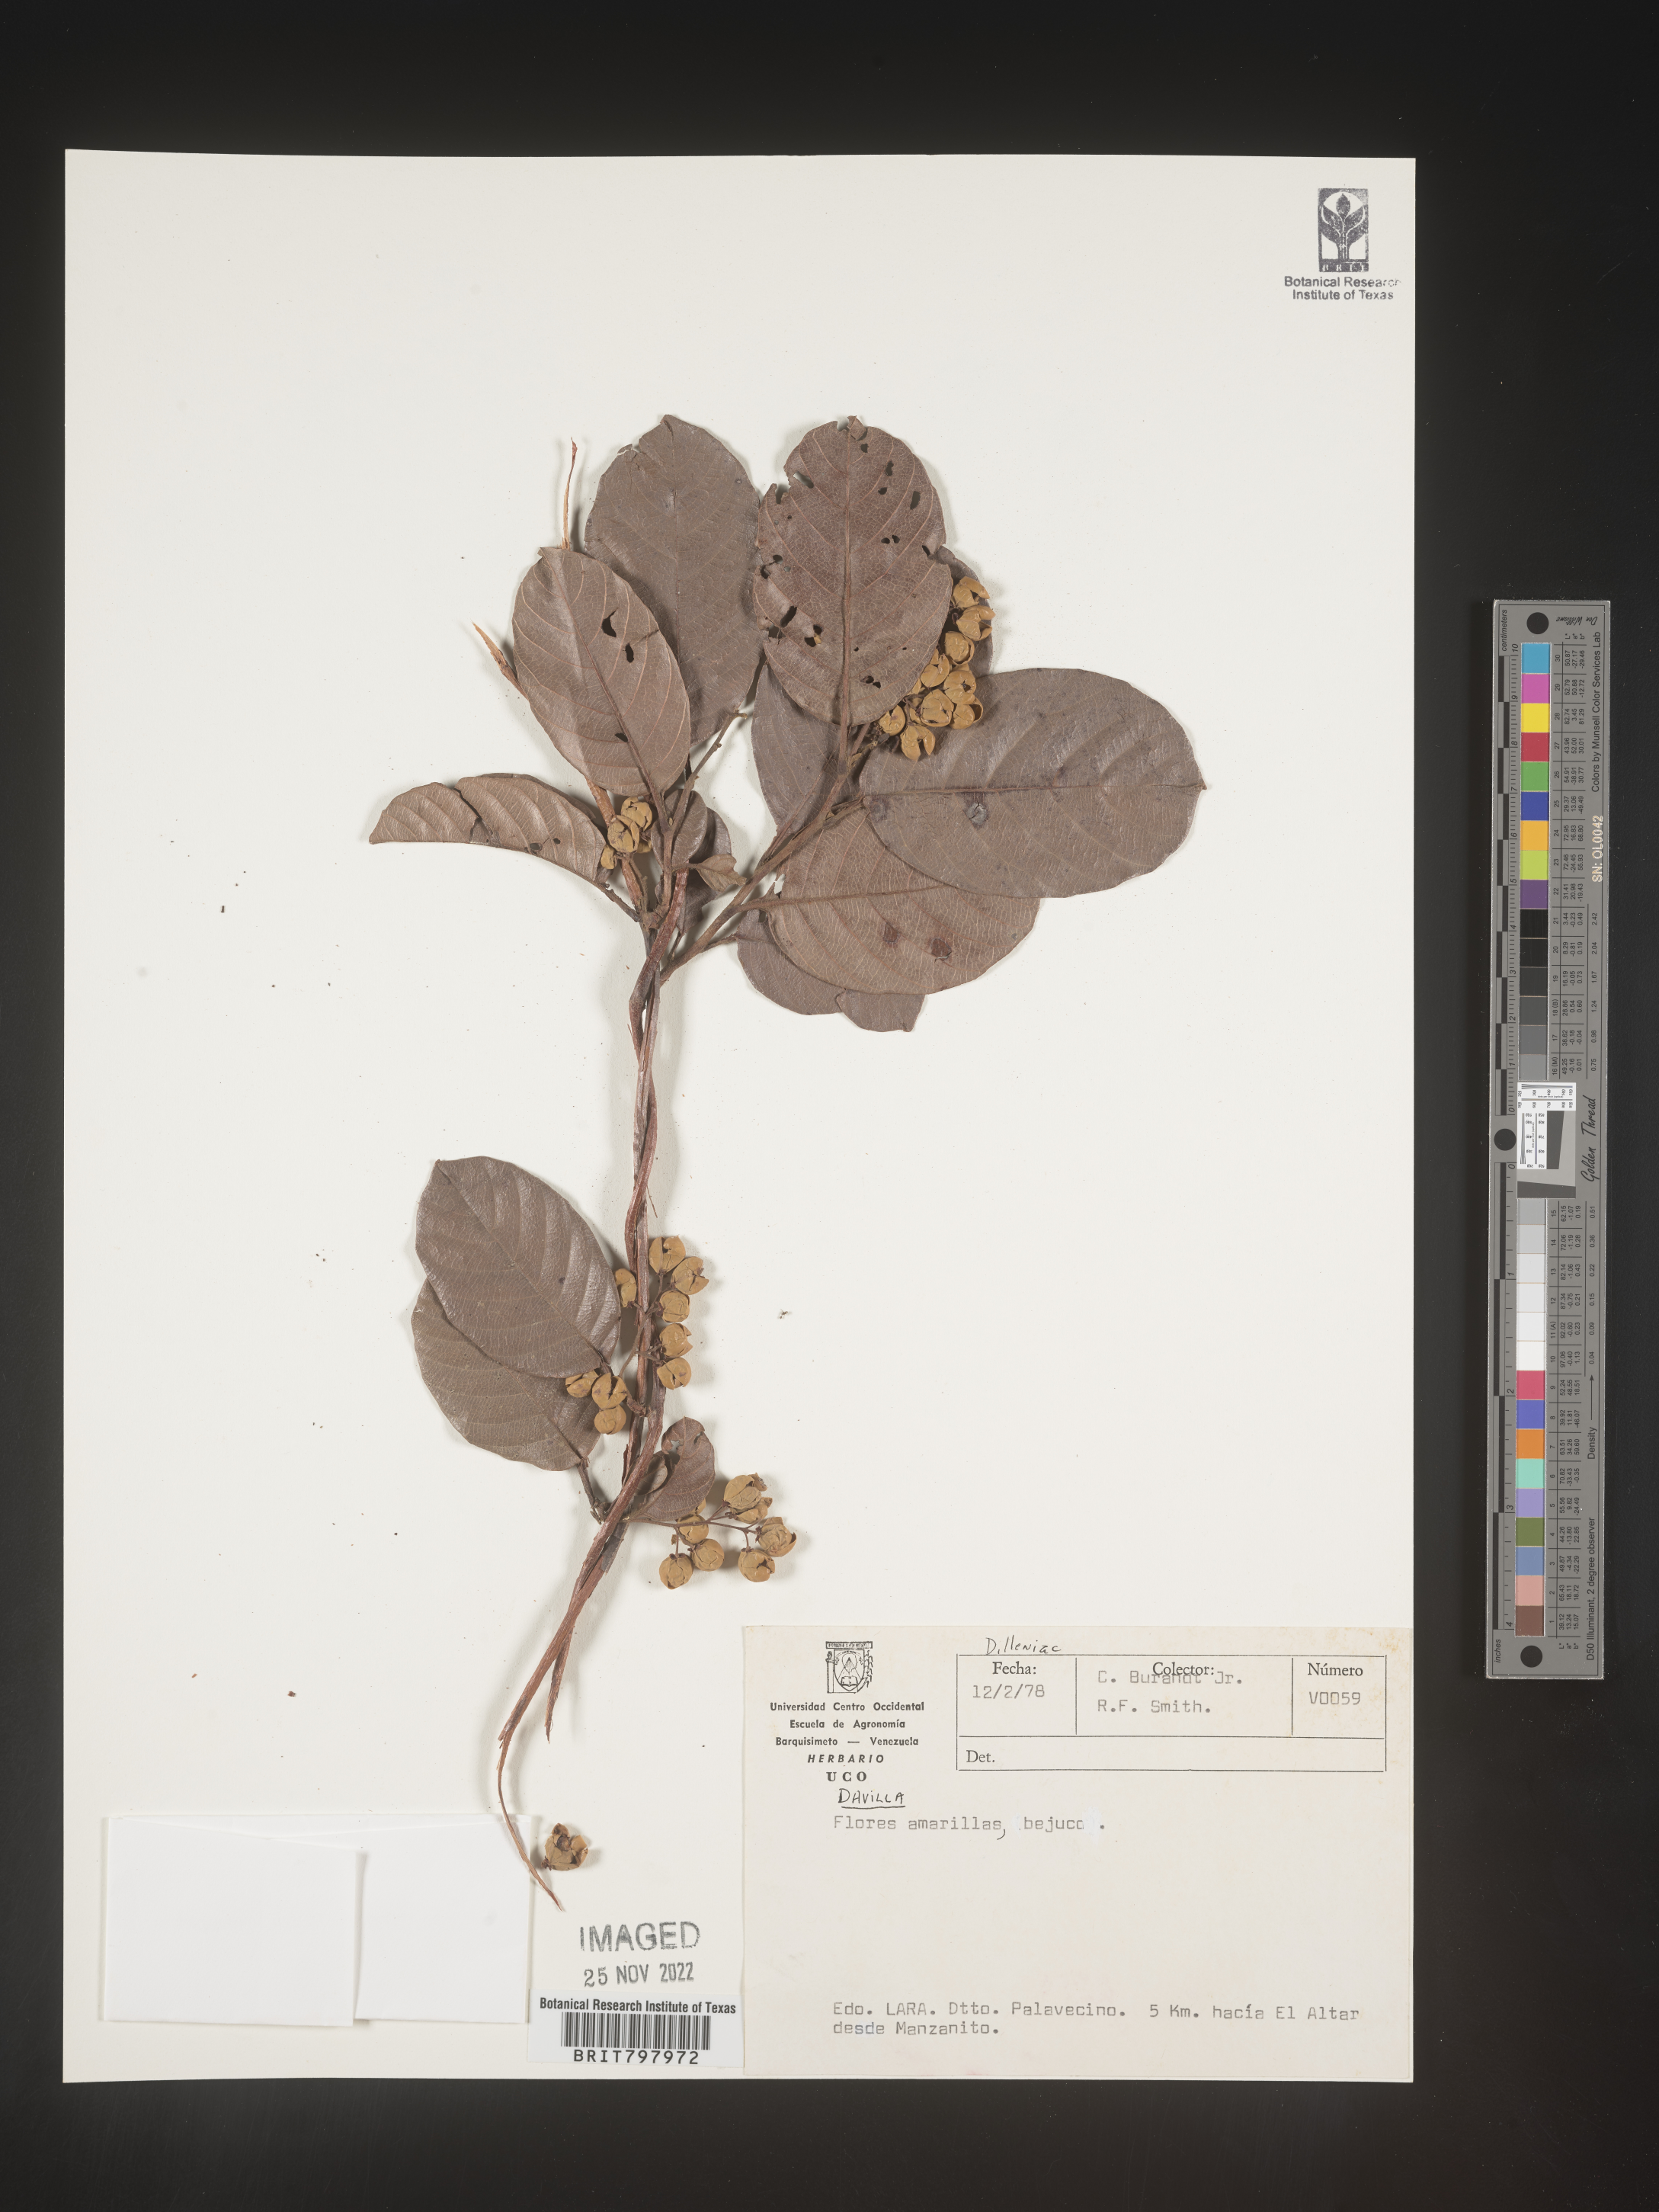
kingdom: Plantae
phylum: Tracheophyta
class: Polypodiopsida
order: Polypodiales
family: Davalliaceae
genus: Davallia
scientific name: Davallia
